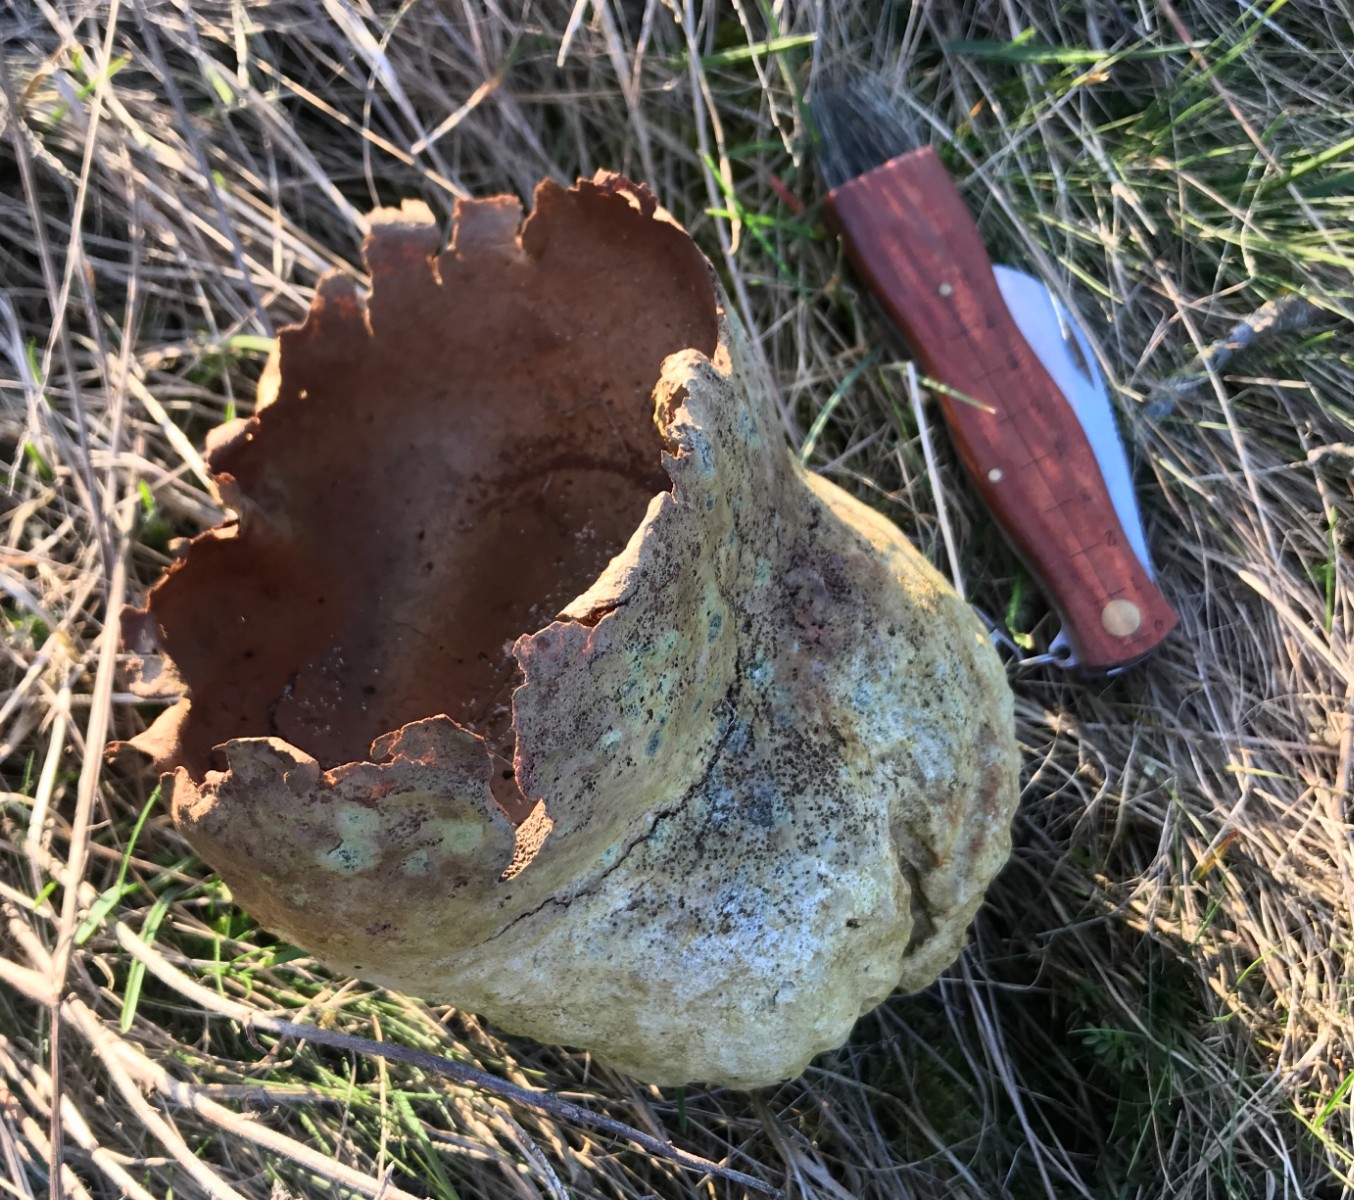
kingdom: Fungi
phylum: Basidiomycota
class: Agaricomycetes
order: Agaricales
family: Lycoperdaceae
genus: Bovistella
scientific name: Bovistella utriformis
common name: skællet støvbold
